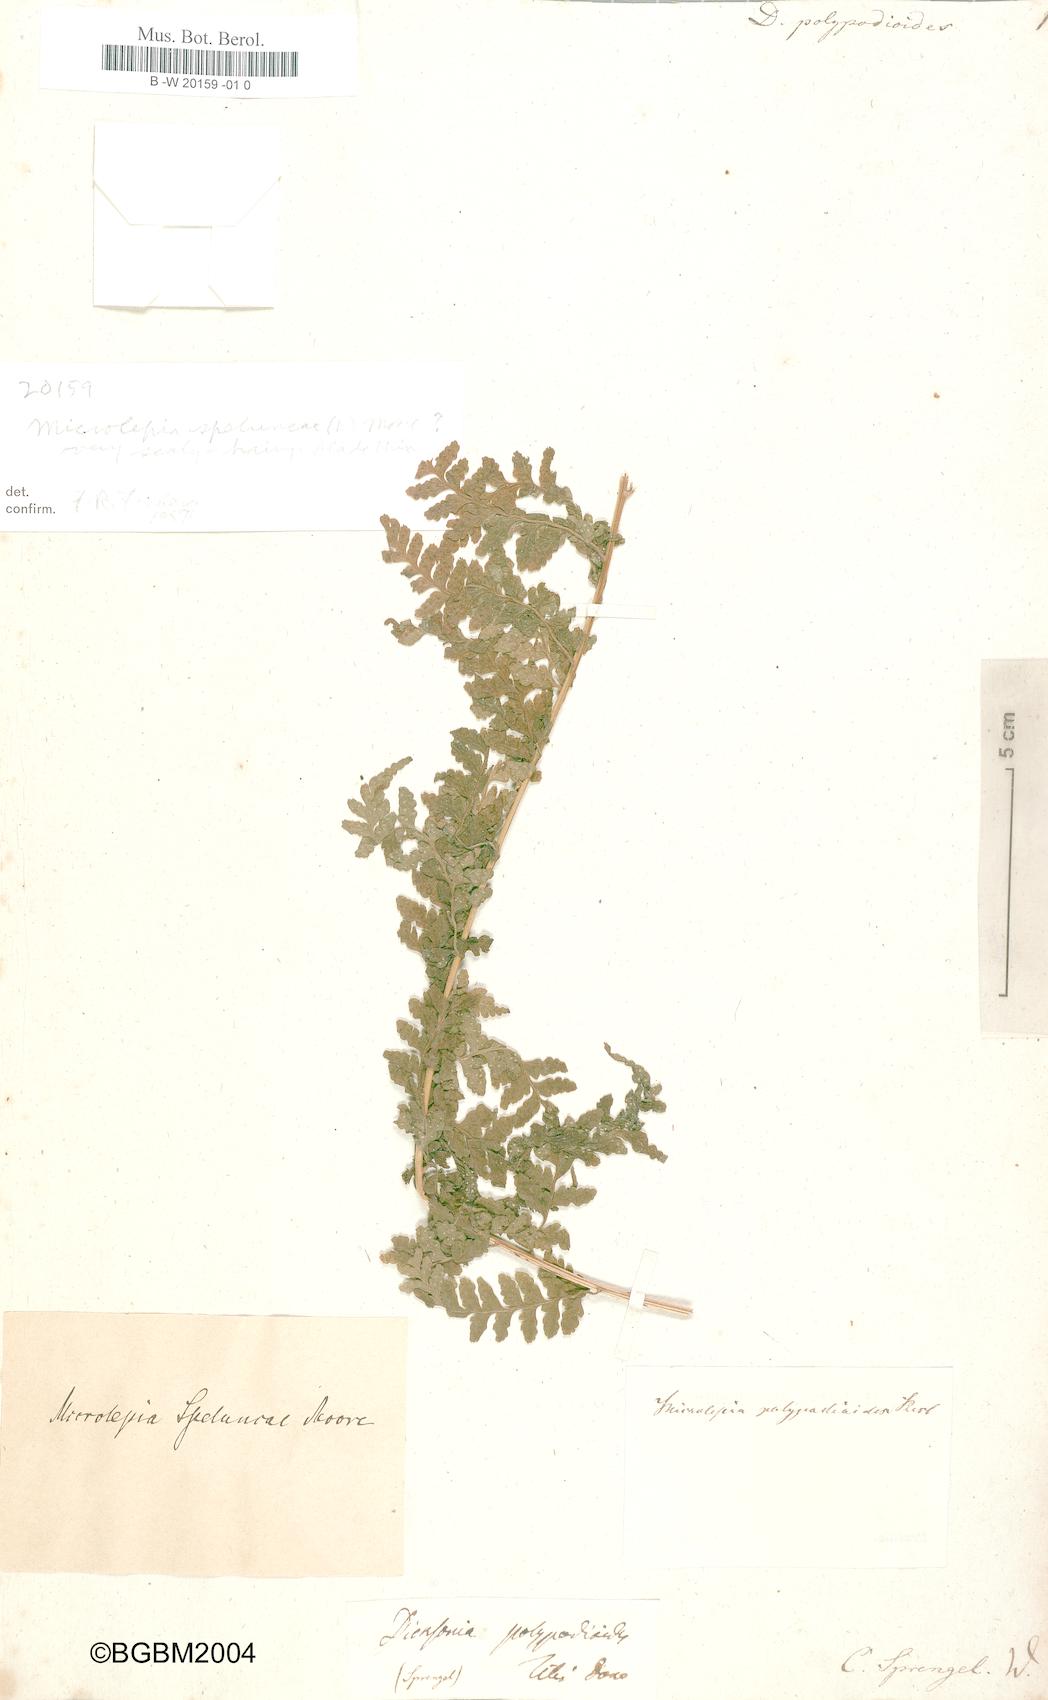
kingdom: Plantae
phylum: Tracheophyta
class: Polypodiopsida
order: Polypodiales
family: Dennstaedtiaceae
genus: Microlepia
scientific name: Microlepia speluncae
